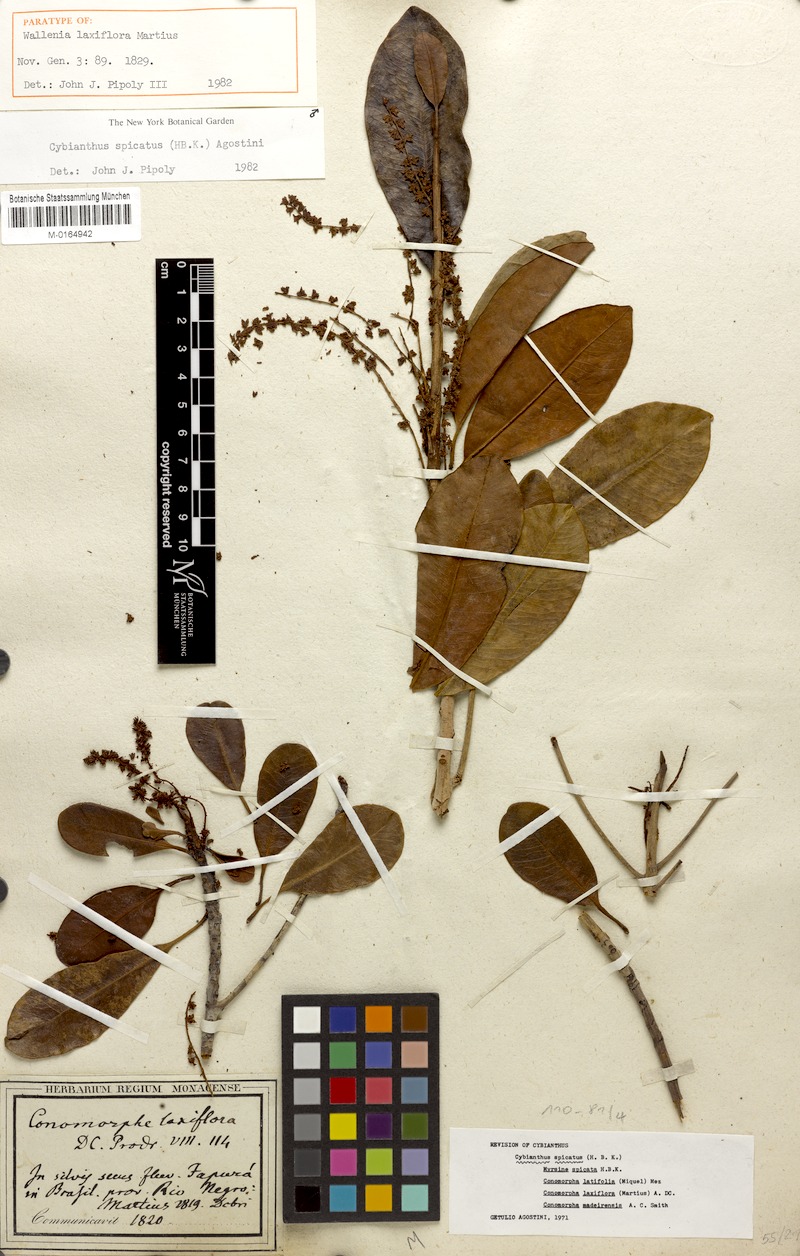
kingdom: Plantae
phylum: Tracheophyta
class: Magnoliopsida
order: Ericales
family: Primulaceae
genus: Cybianthus
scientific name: Cybianthus spicatus
